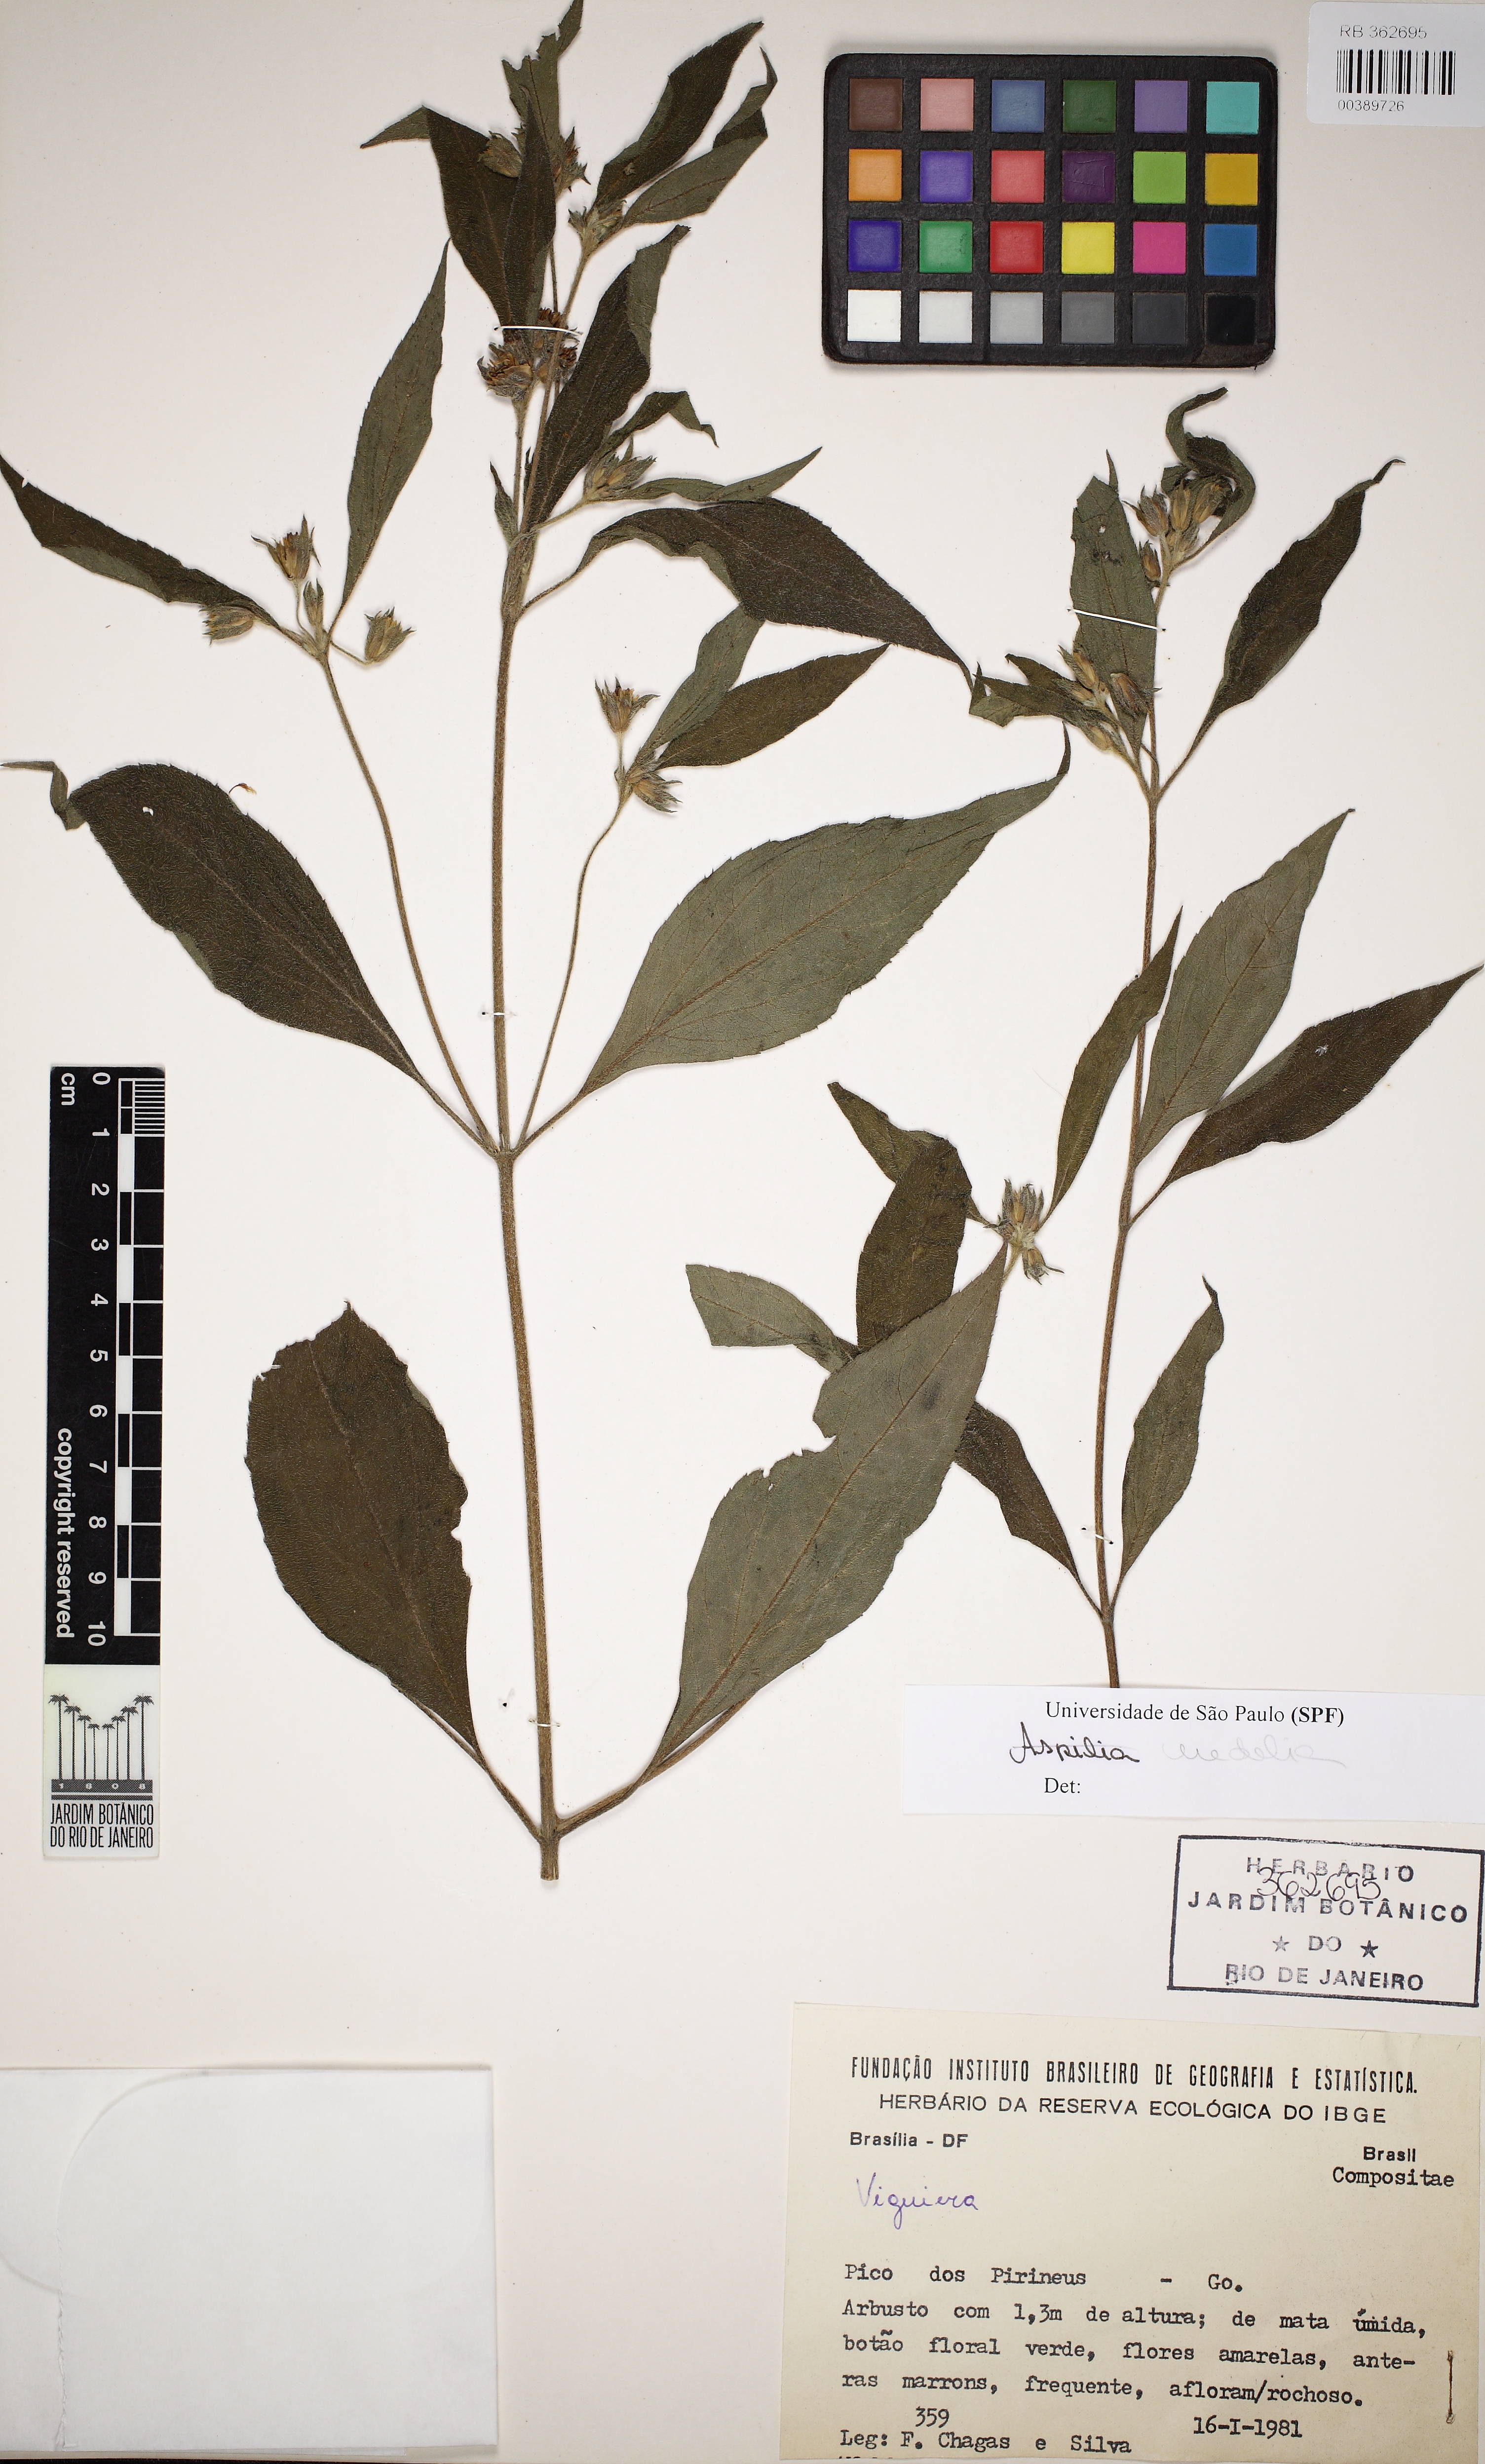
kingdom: Plantae
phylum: Tracheophyta
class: Magnoliopsida
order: Asterales
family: Asteraceae
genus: Aspilia
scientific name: Aspilia
